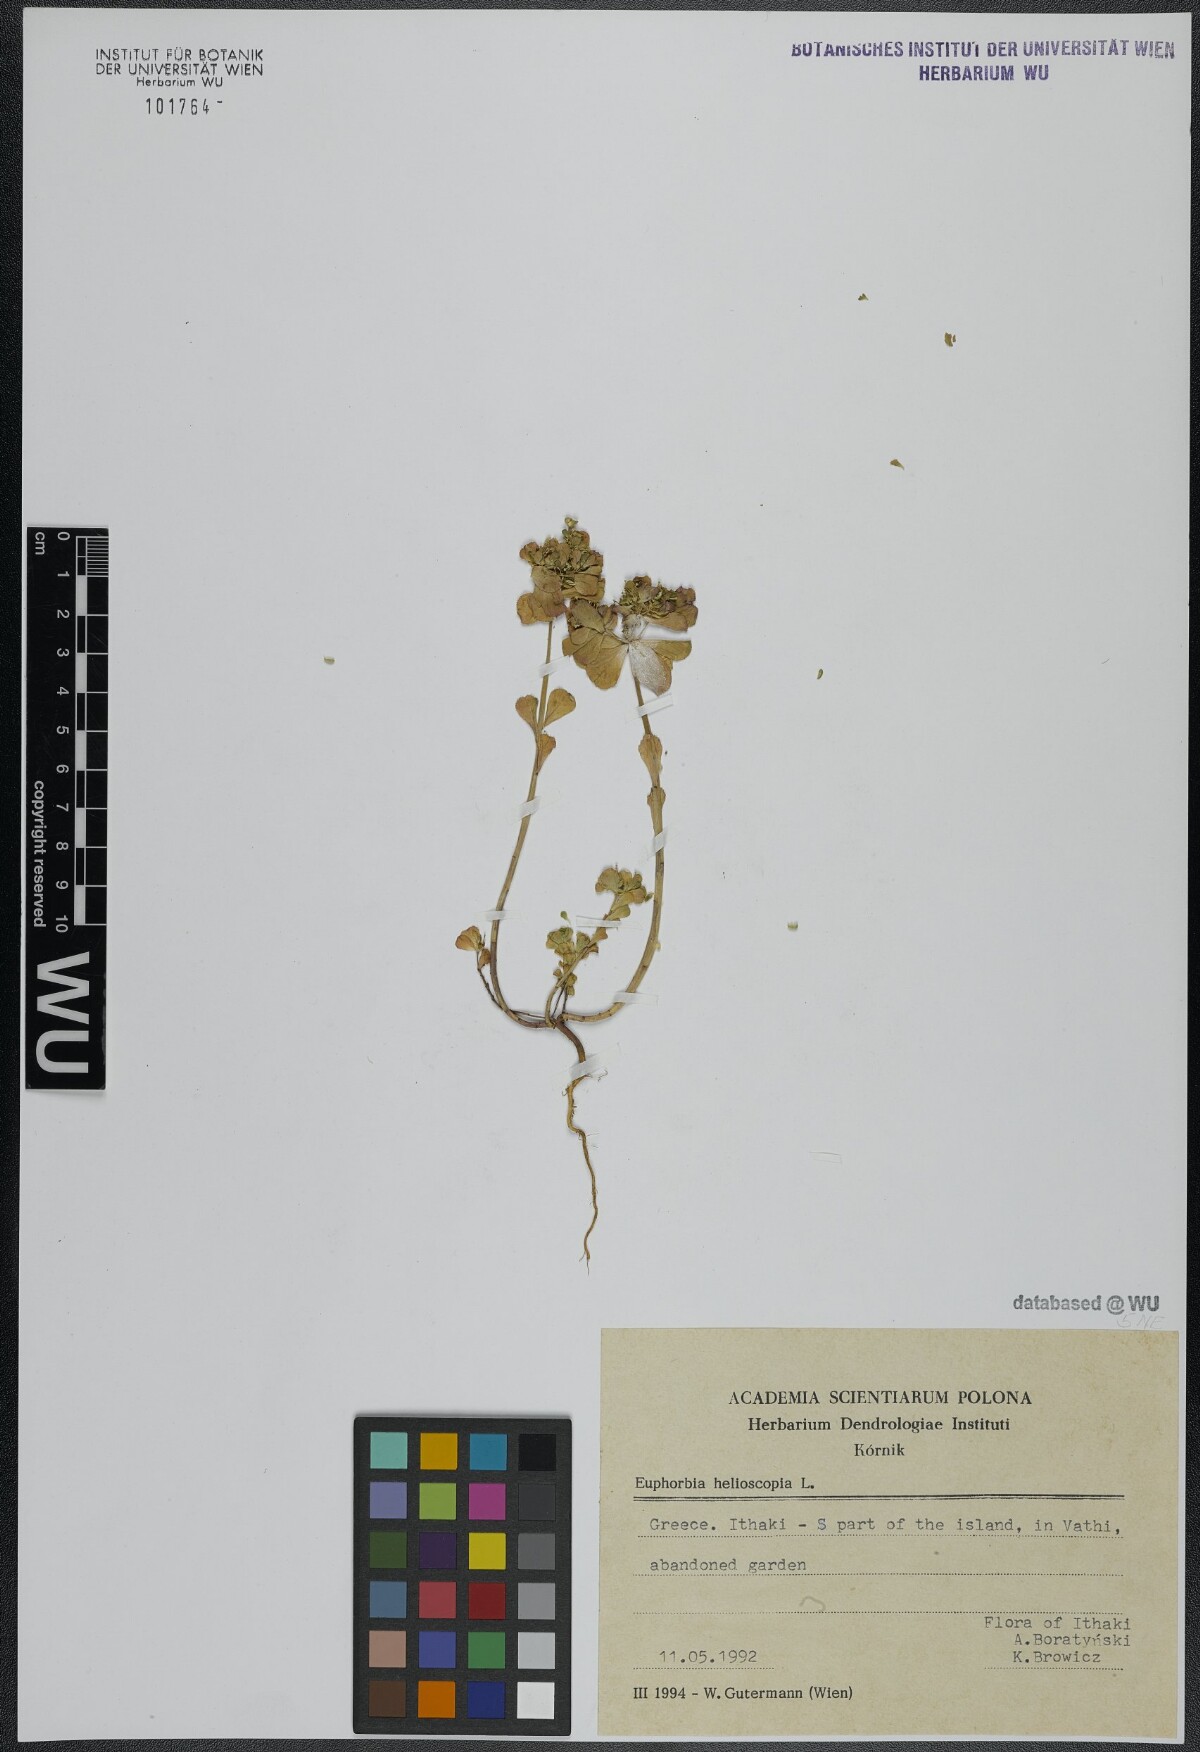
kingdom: Plantae
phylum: Tracheophyta
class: Magnoliopsida
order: Malpighiales
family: Euphorbiaceae
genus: Euphorbia
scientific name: Euphorbia helioscopia
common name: Sun spurge
